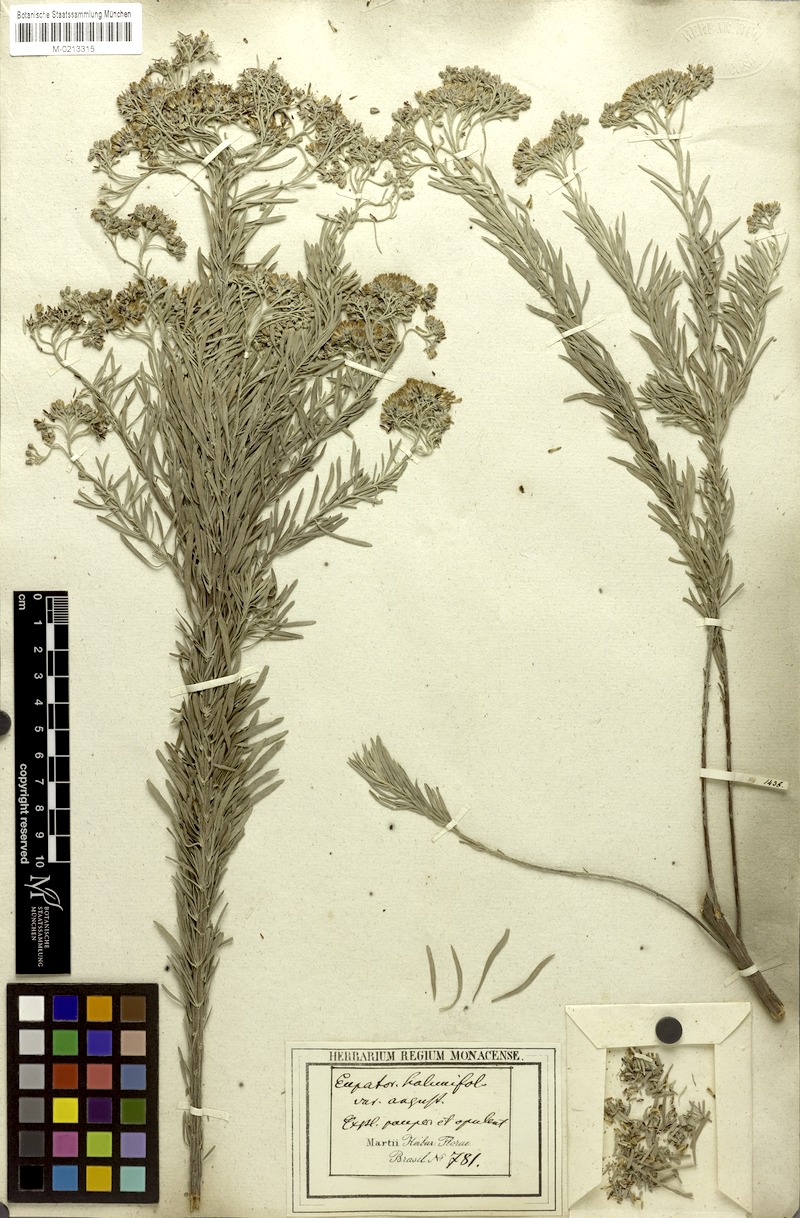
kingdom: Plantae
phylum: Tracheophyta
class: Magnoliopsida
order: Asterales
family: Asteraceae
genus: Disynaphia
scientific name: Disynaphia spathulata
